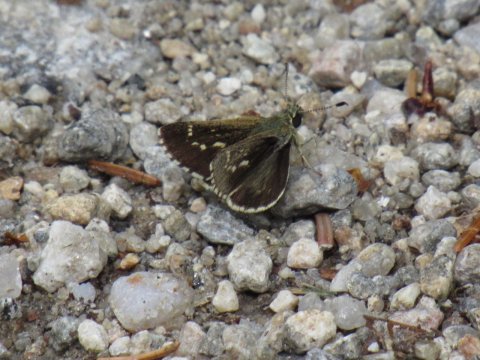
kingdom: Animalia
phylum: Arthropoda
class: Insecta
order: Lepidoptera
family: Hesperiidae
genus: Mastor
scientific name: Mastor hegon
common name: Pepper and Salt Skipper
